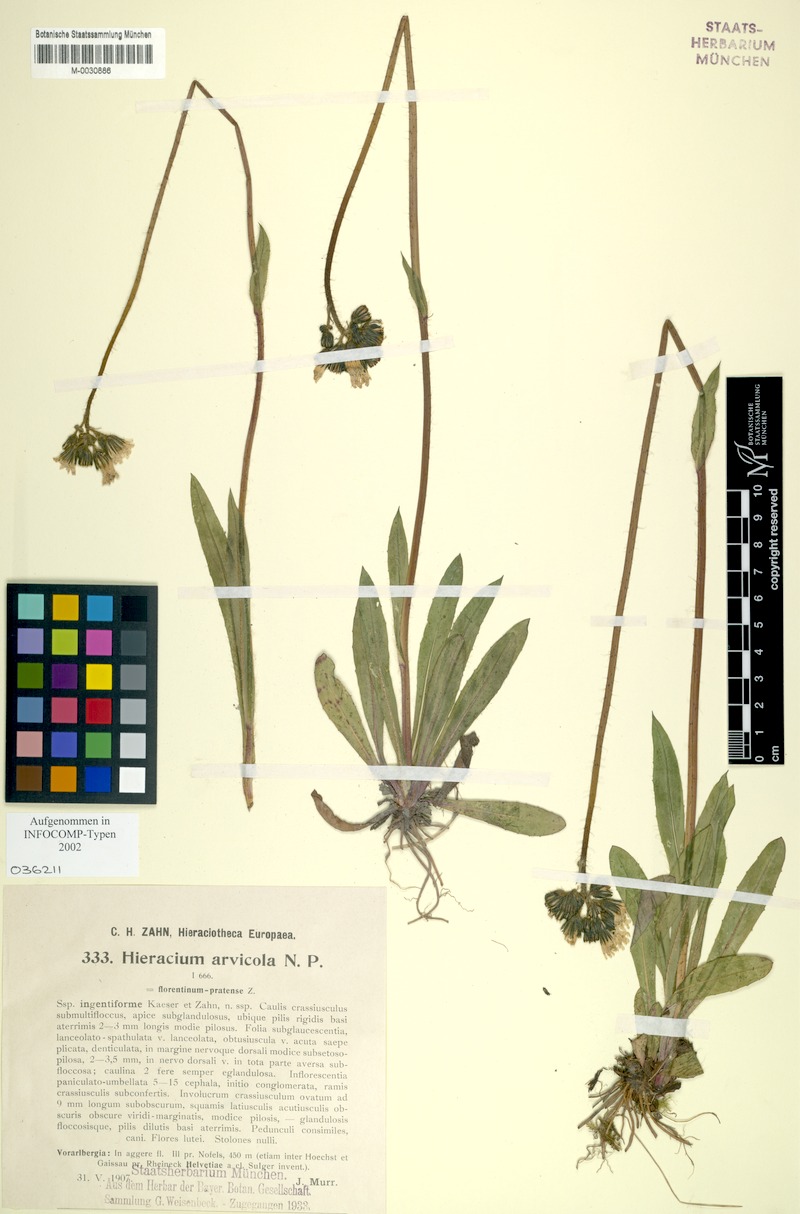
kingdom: Plantae
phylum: Tracheophyta
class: Magnoliopsida
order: Asterales
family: Asteraceae
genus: Pilosella
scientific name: Pilosella erythrochrista
